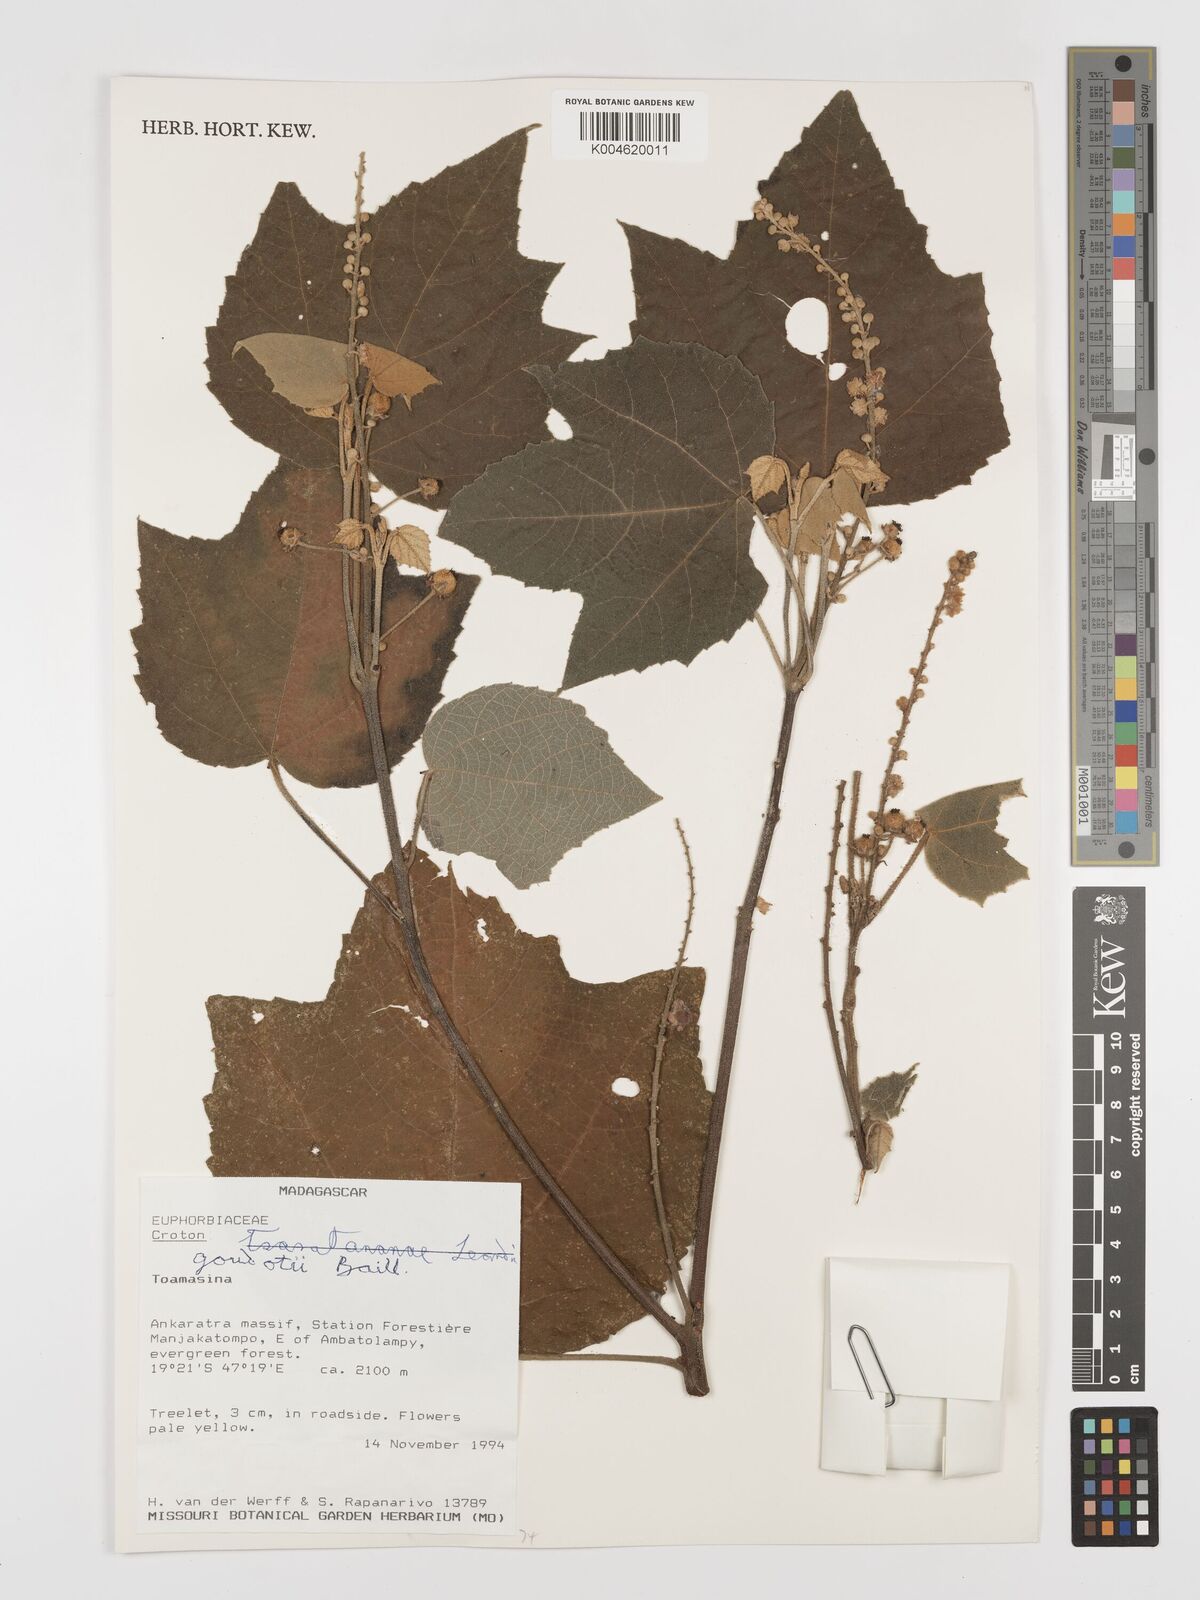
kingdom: Plantae
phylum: Tracheophyta
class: Magnoliopsida
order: Malpighiales
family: Euphorbiaceae
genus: Croton
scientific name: Croton goudotii
